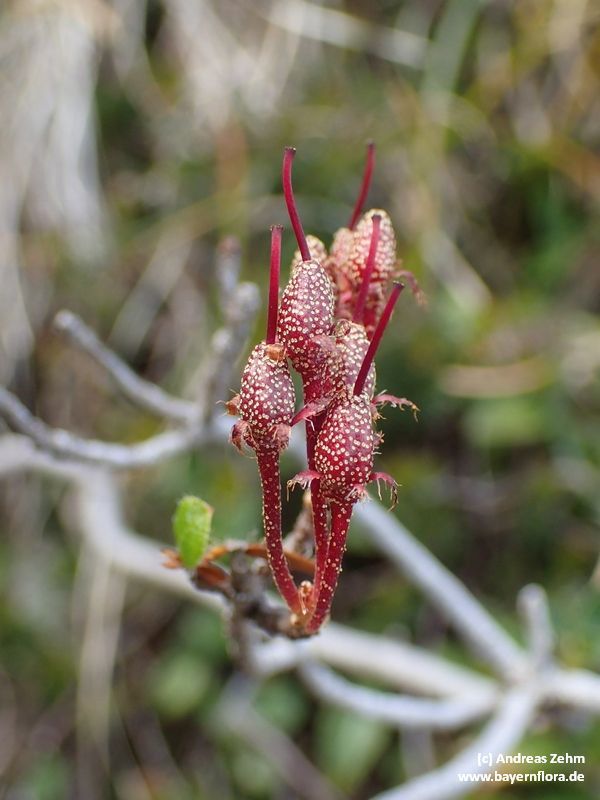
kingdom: Plantae
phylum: Tracheophyta
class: Magnoliopsida
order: Ericales
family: Ericaceae
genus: Rhododendron
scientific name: Rhododendron hirsutum
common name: Hairy alpenrose
